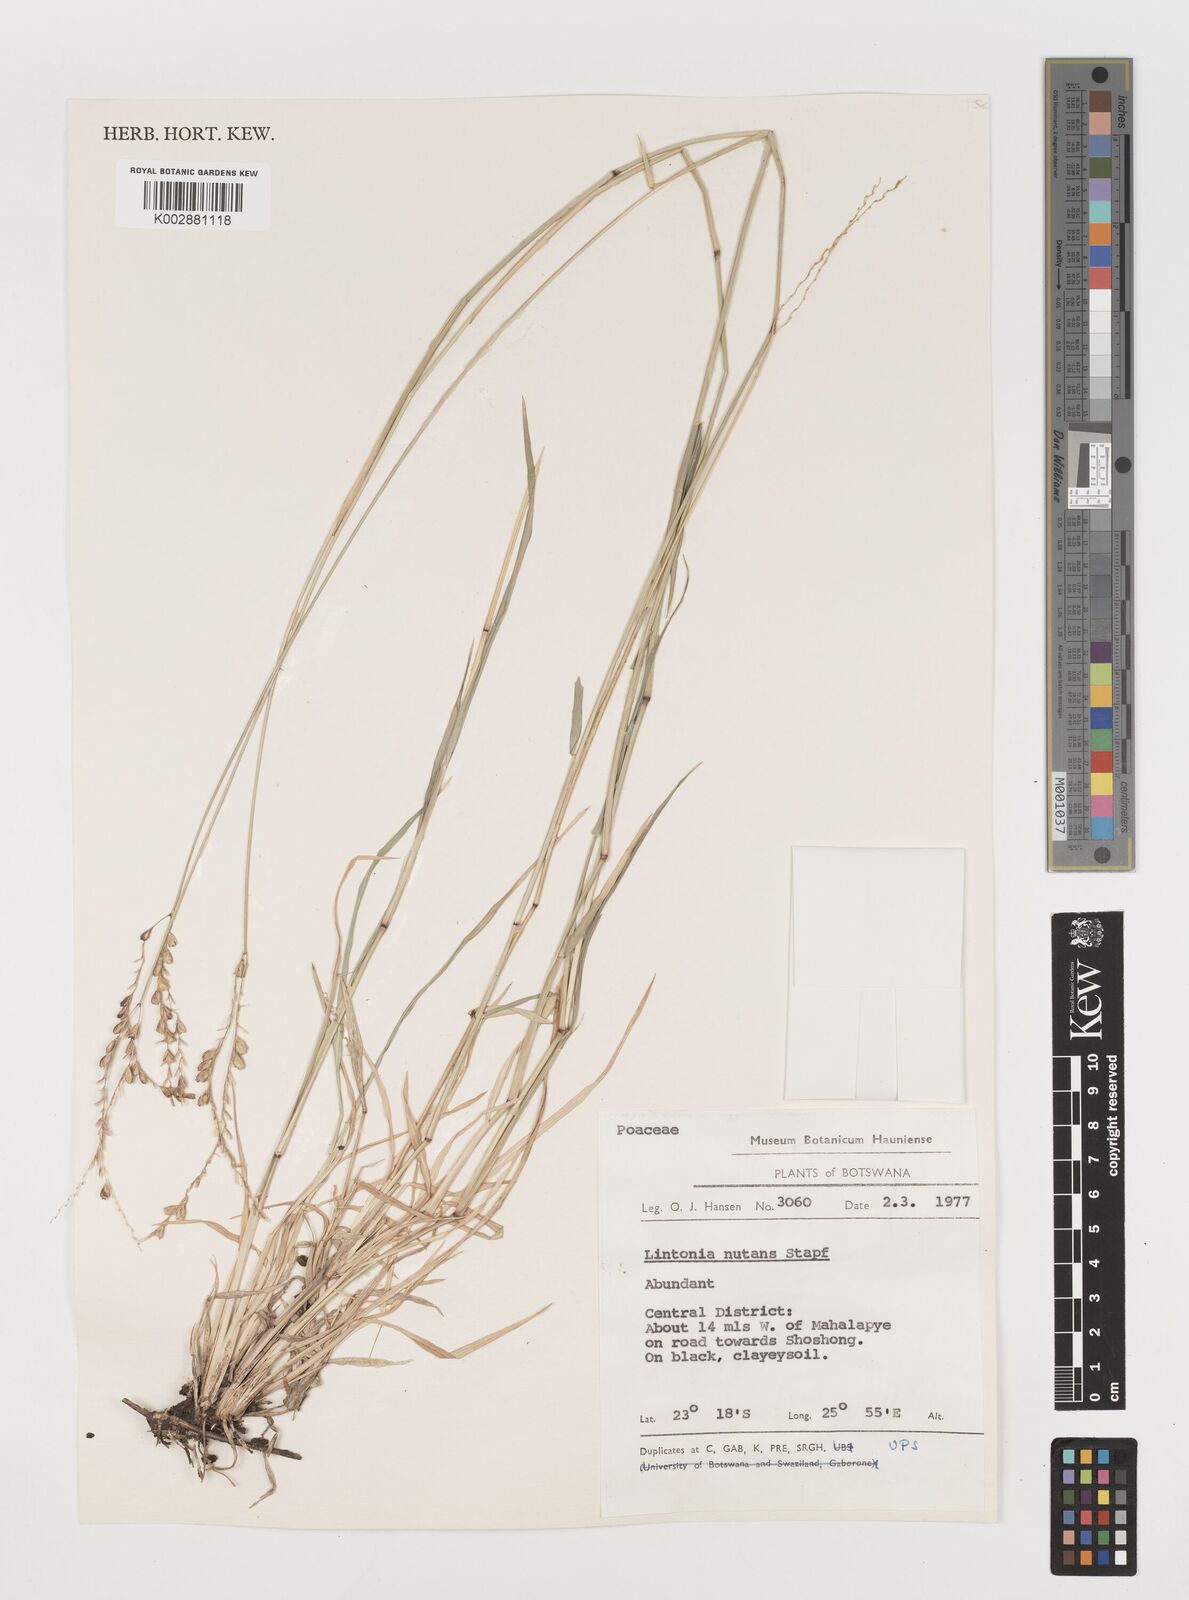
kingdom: Plantae
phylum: Tracheophyta
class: Liliopsida
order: Poales
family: Poaceae
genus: Chloris
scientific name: Chloris nutans
